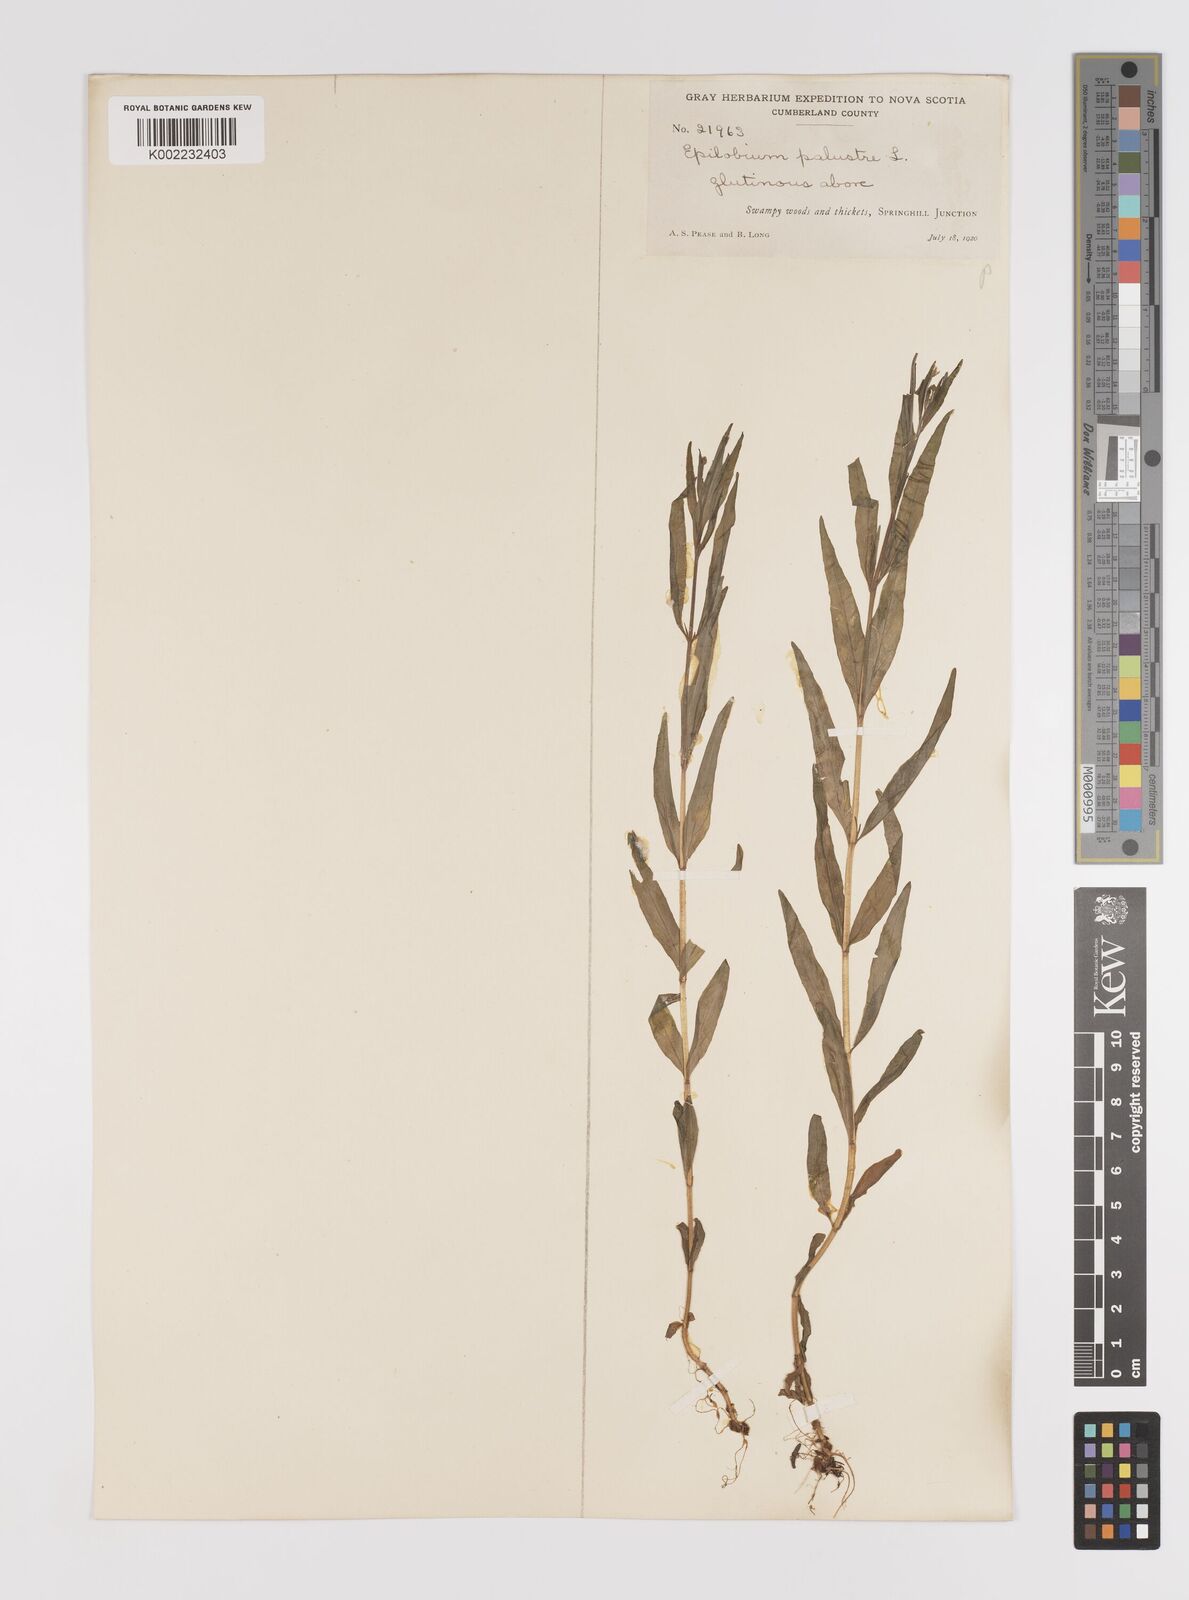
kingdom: Plantae
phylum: Tracheophyta
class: Magnoliopsida
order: Myrtales
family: Onagraceae
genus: Epilobium
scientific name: Epilobium palustre
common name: Marsh willowherb
